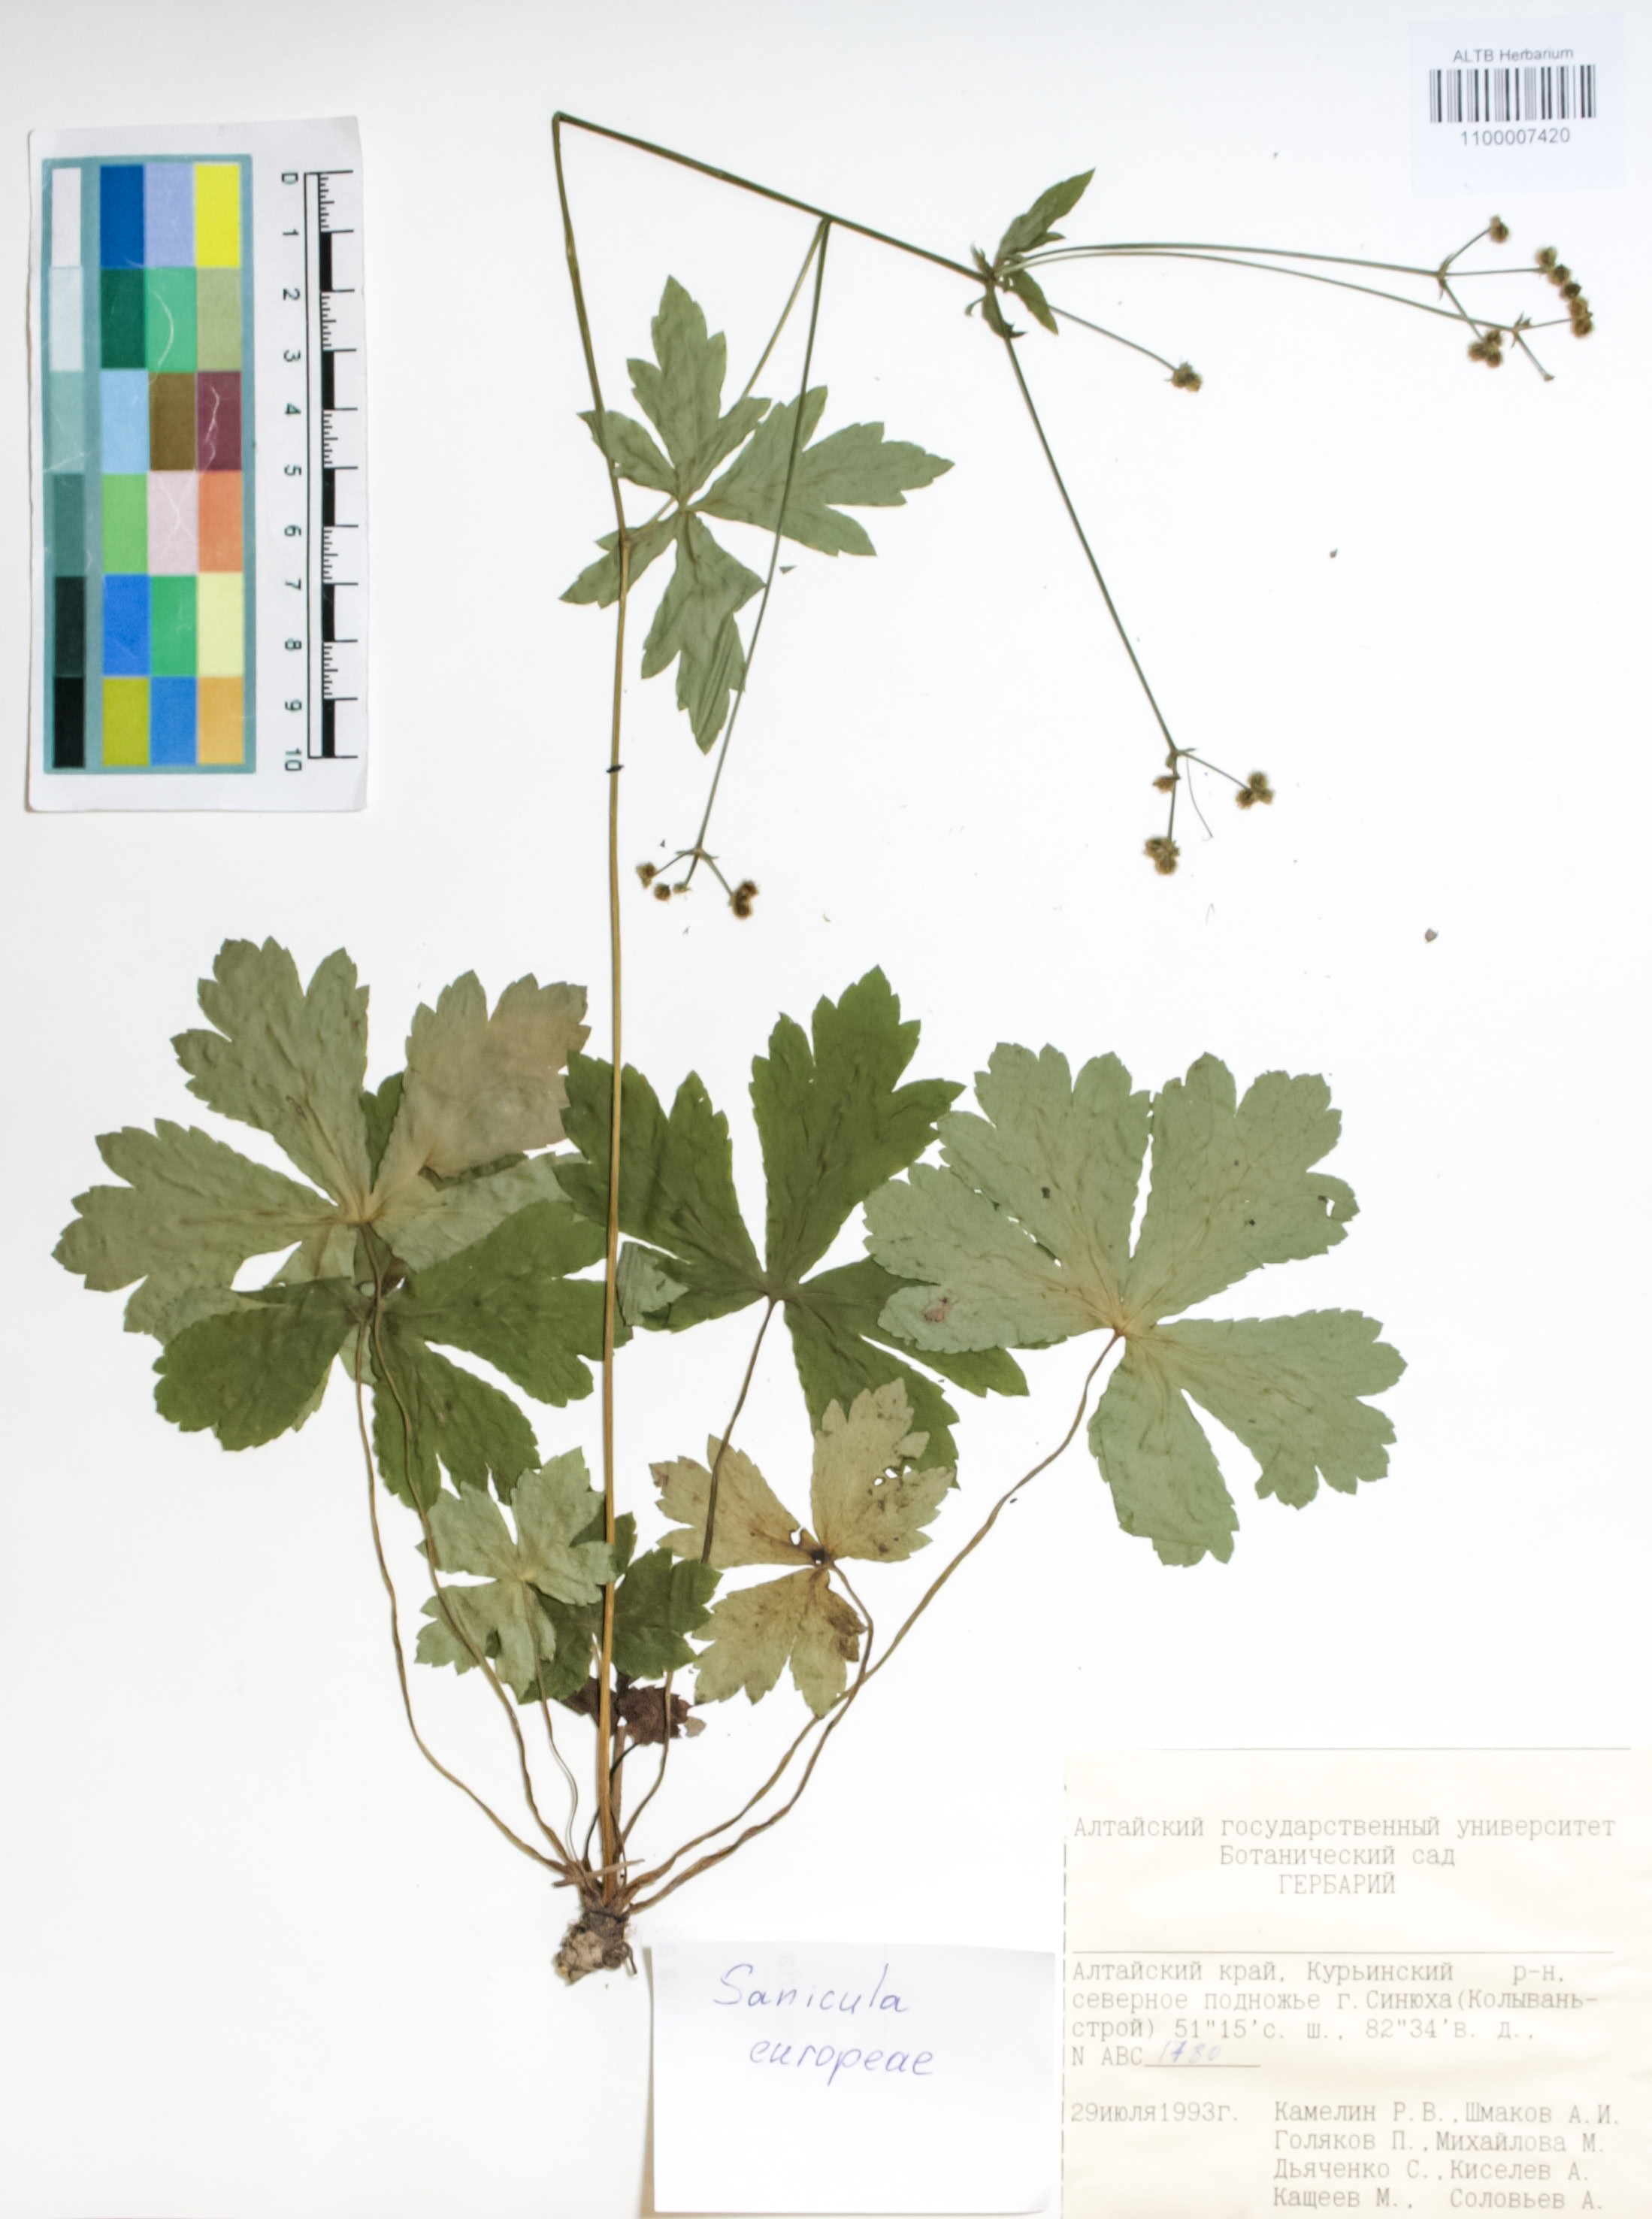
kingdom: Plantae
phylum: Tracheophyta
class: Magnoliopsida
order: Apiales
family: Apiaceae
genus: Sanicula
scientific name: Sanicula europaea
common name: Sanicle
